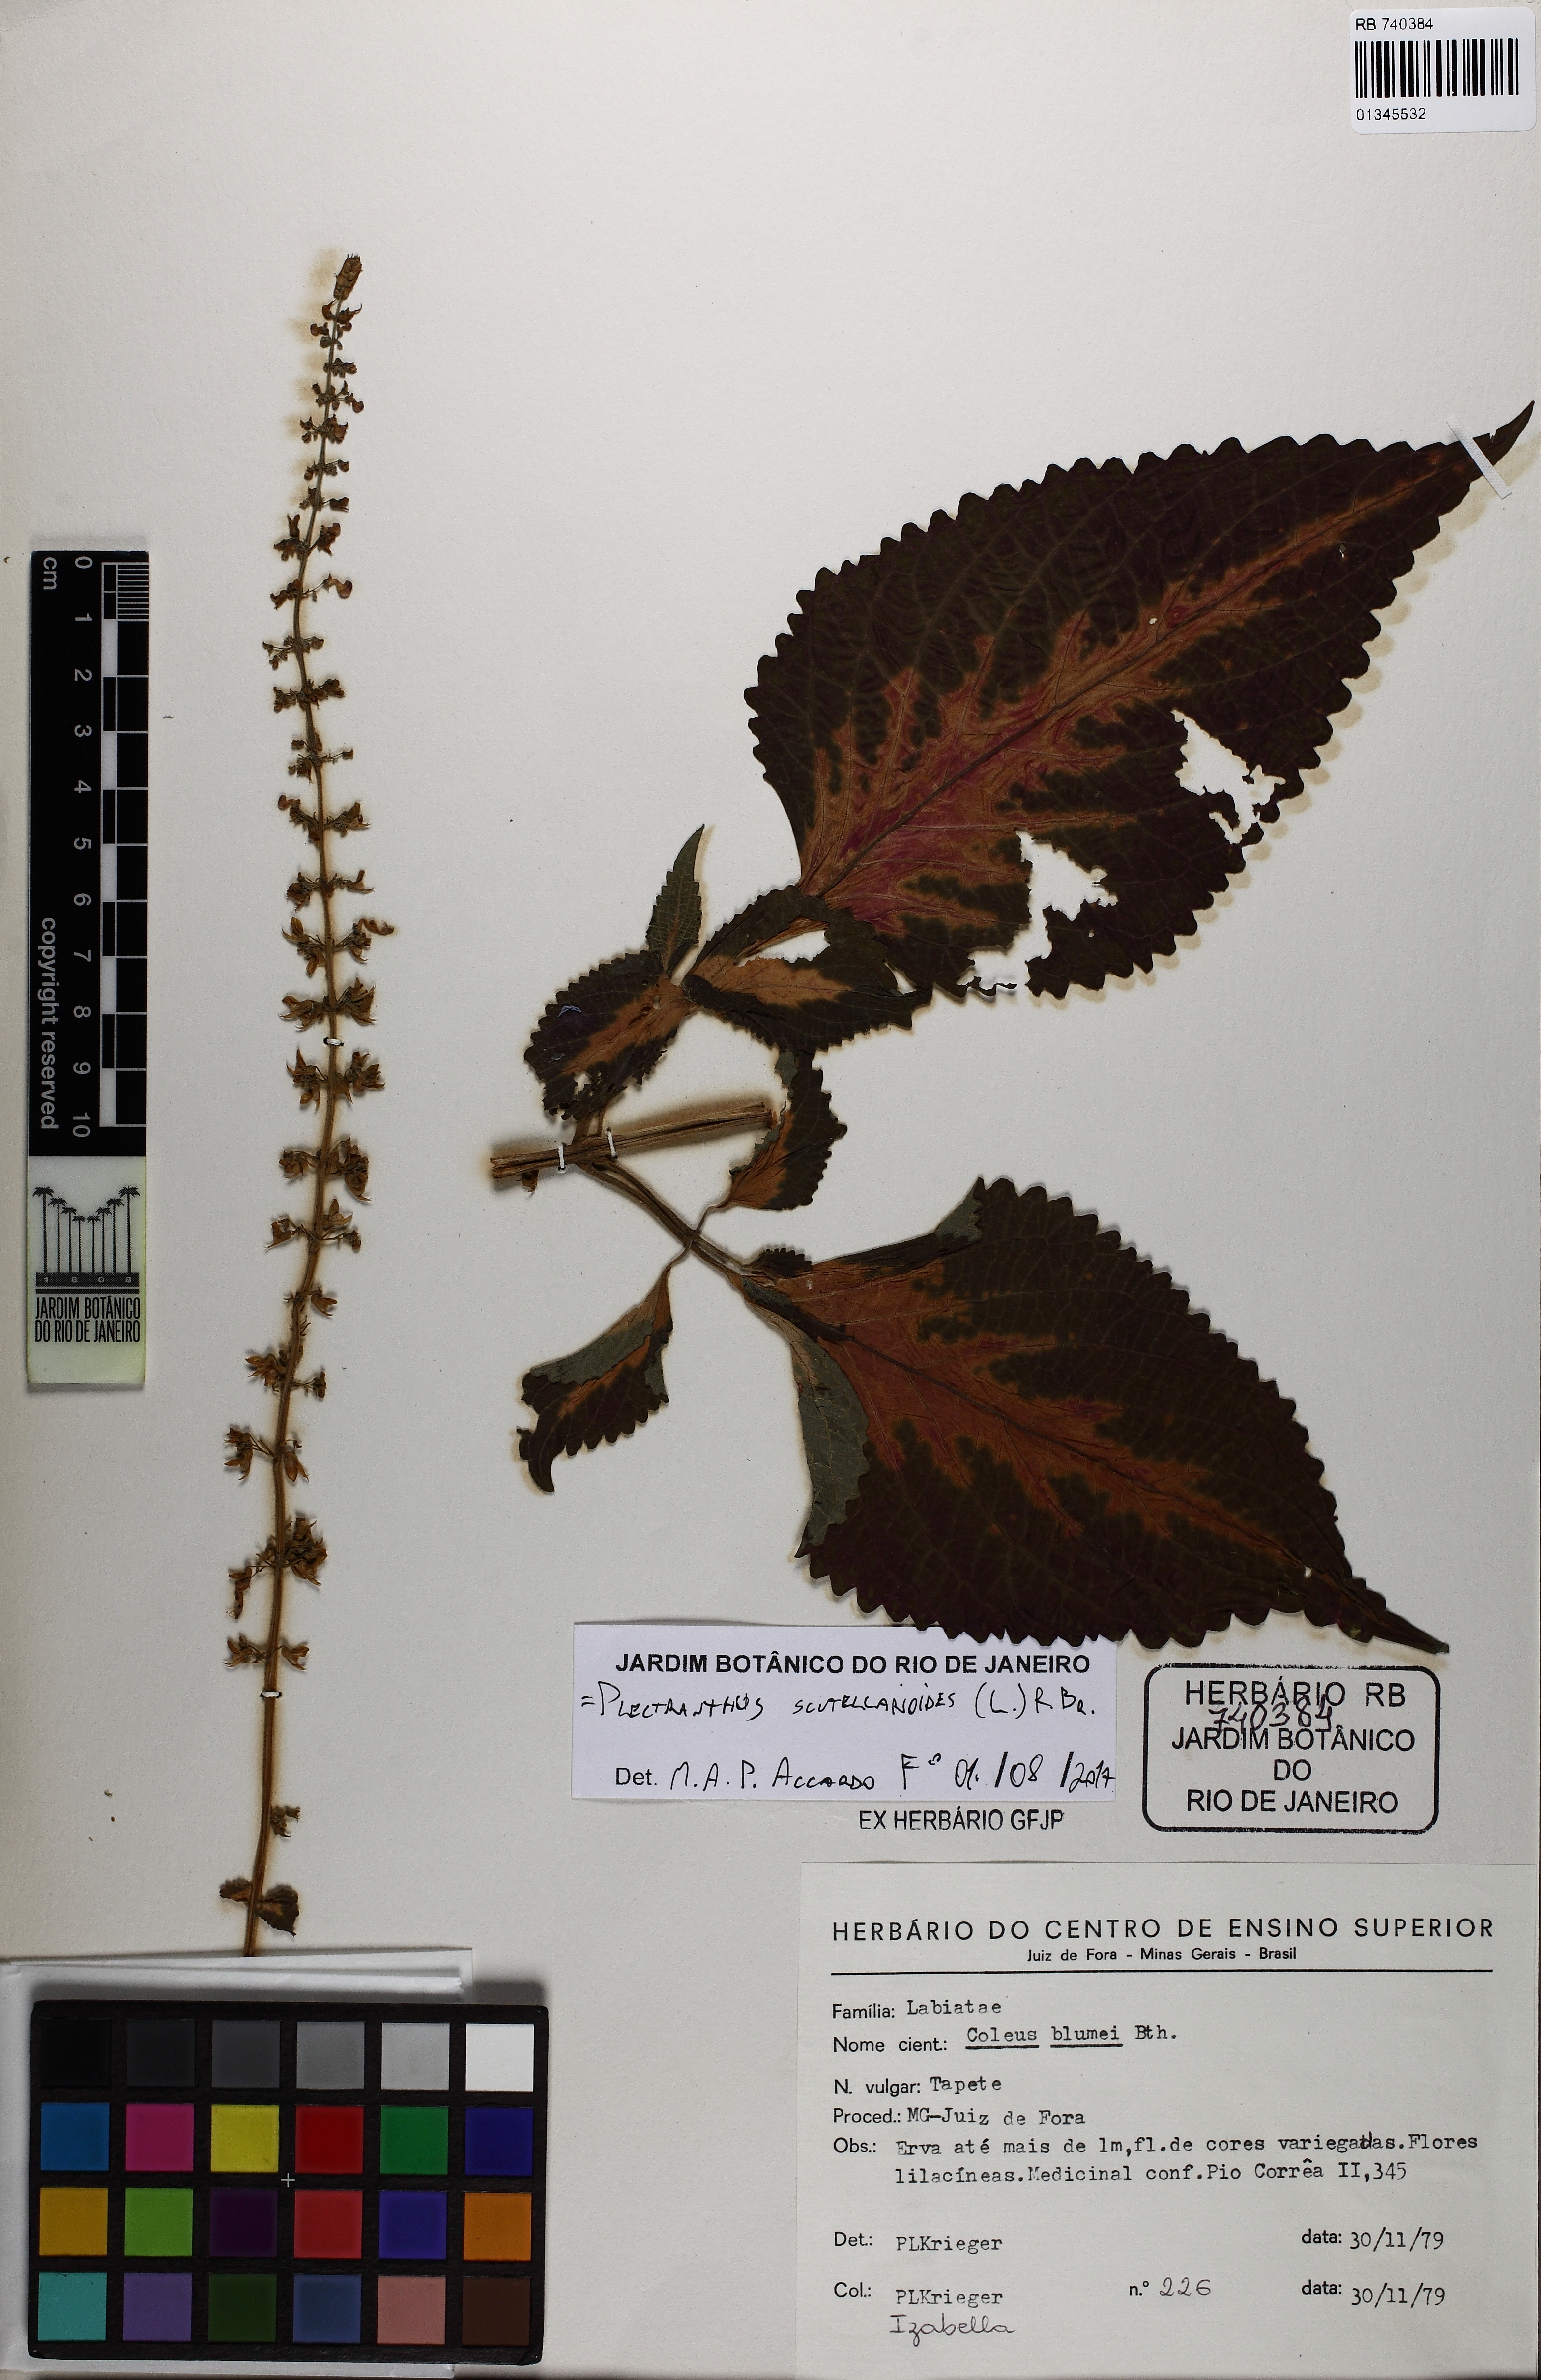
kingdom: Plantae
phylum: Tracheophyta
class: Magnoliopsida
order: Lamiales
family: Lamiaceae
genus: Coleus
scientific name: Coleus scutellarioides
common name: Coleus
